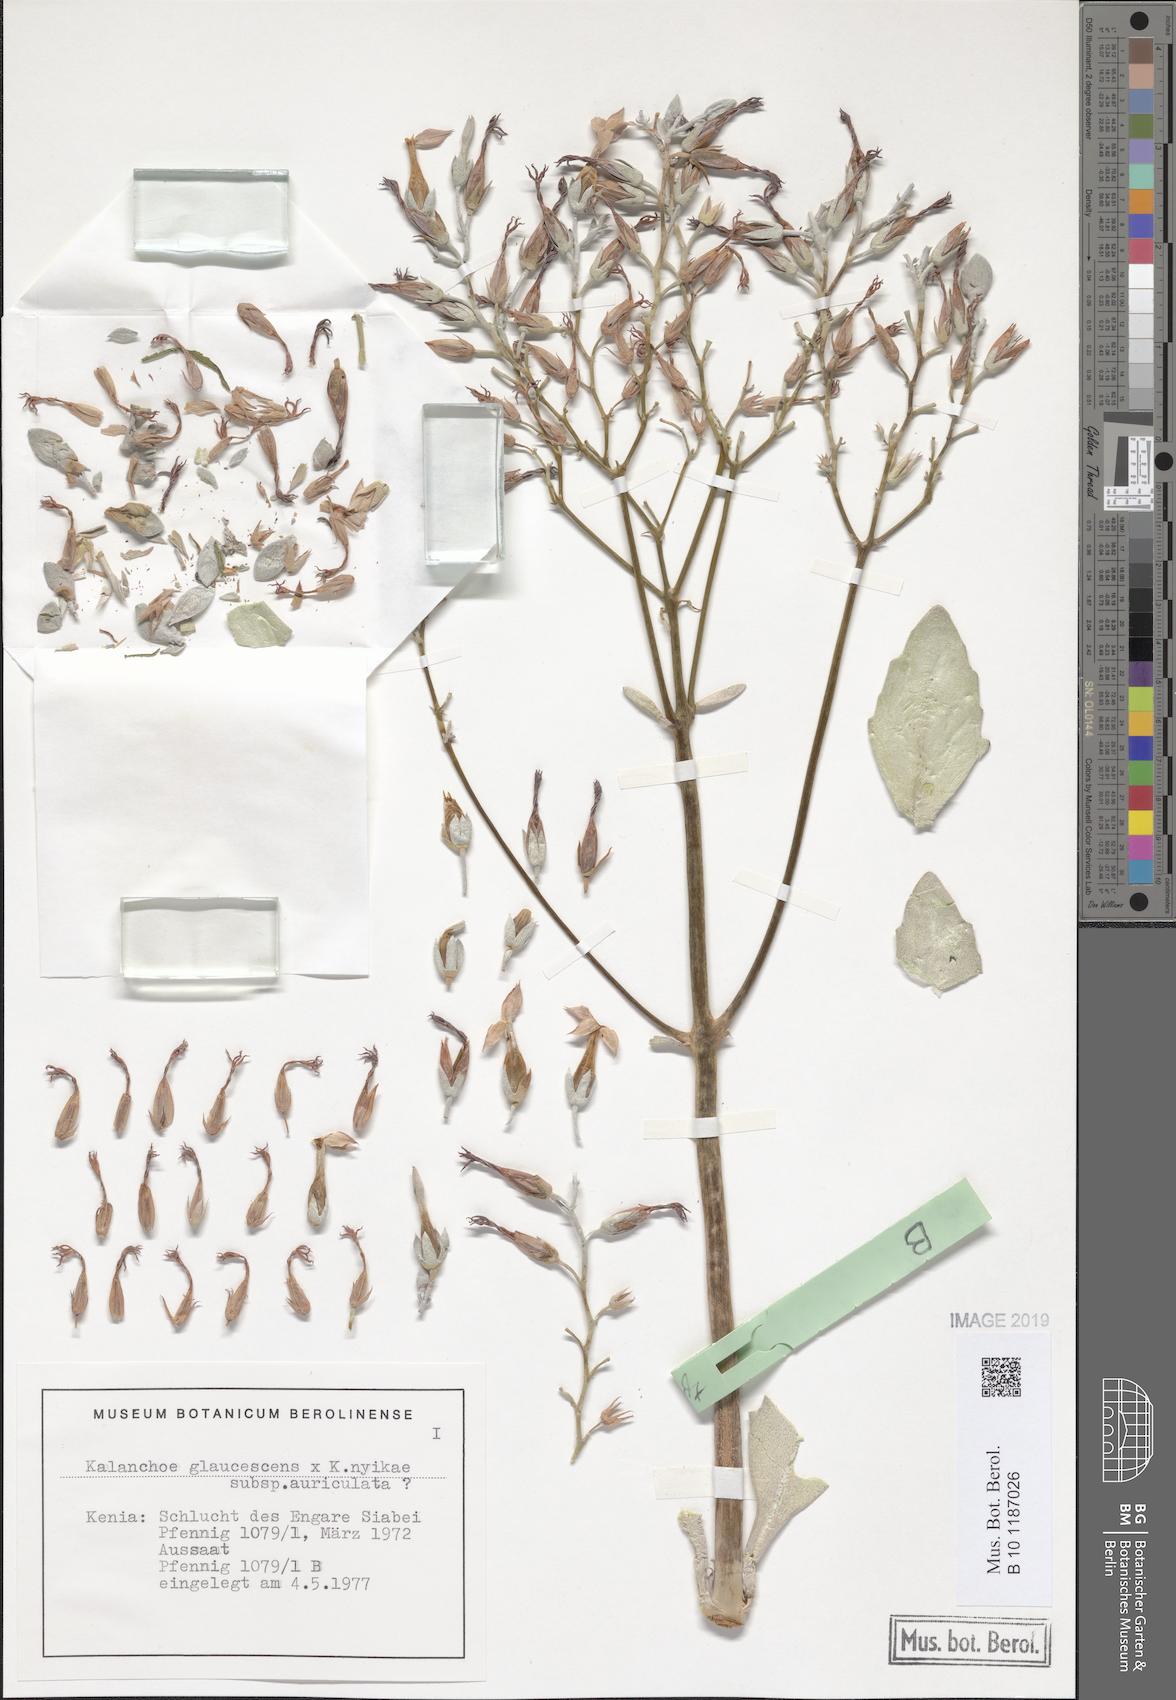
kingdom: Plantae
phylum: Tracheophyta
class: Magnoliopsida
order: Saxifragales
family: Crassulaceae
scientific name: Crassulaceae
